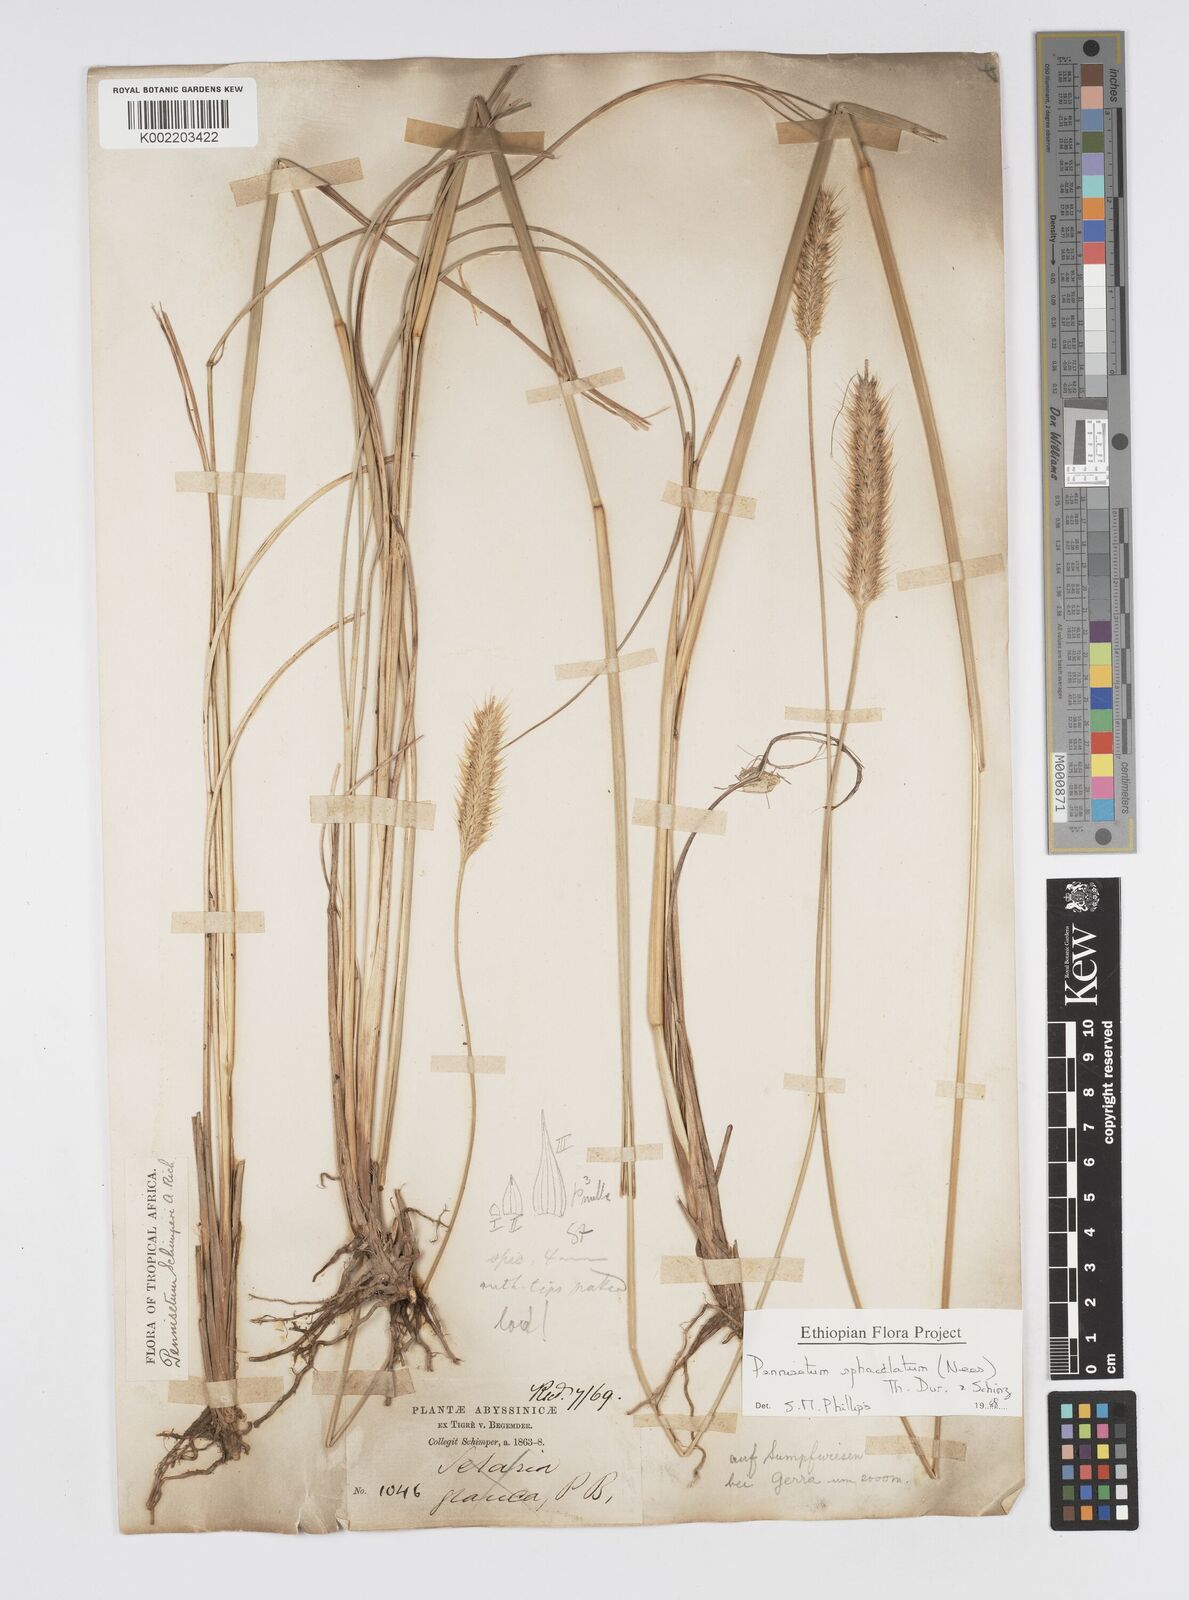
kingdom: Plantae
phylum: Tracheophyta
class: Liliopsida
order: Poales
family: Poaceae
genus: Cenchrus
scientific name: Cenchrus sphacelatus
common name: Bulgras
